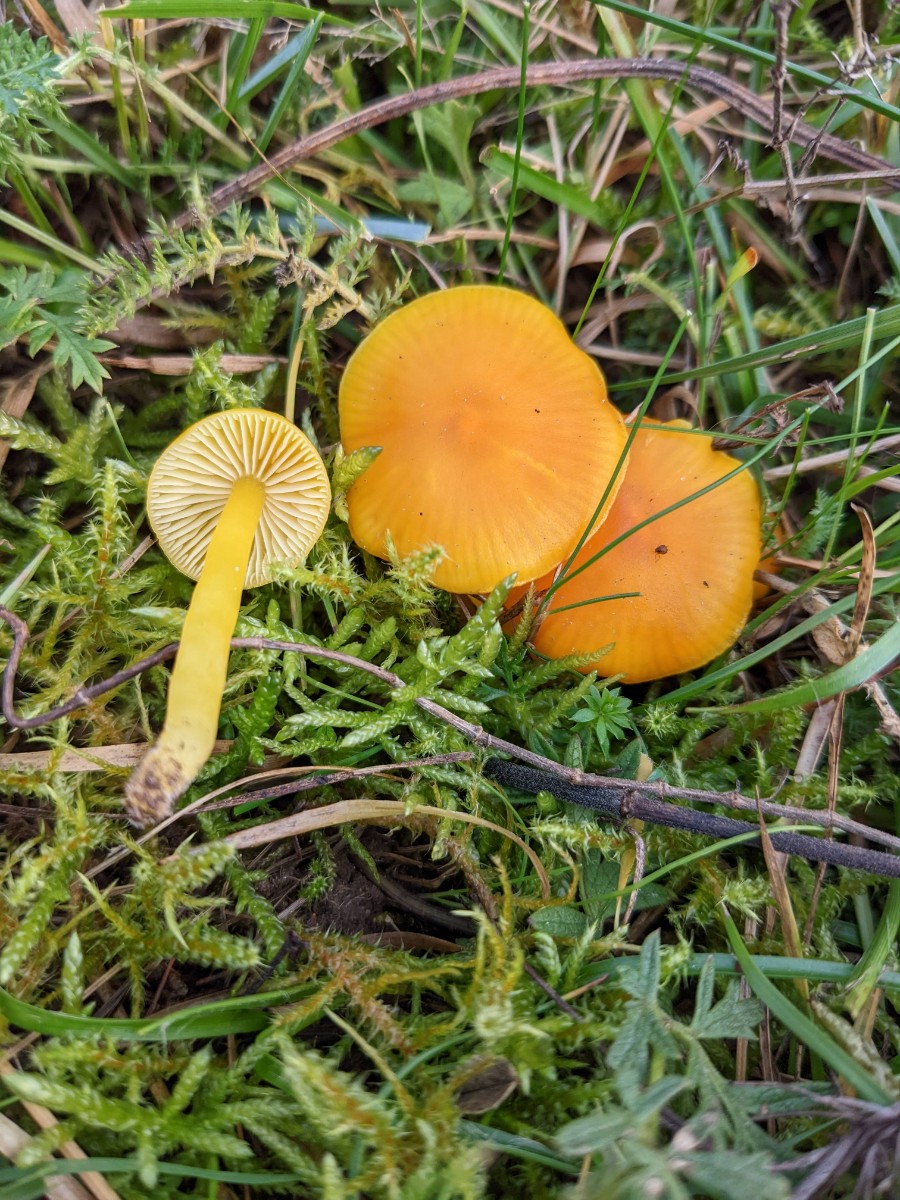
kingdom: Fungi
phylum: Basidiomycota
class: Agaricomycetes
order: Agaricales
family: Hygrophoraceae
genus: Hygrocybe
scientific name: Hygrocybe ceracea
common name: voksgul vokshat
